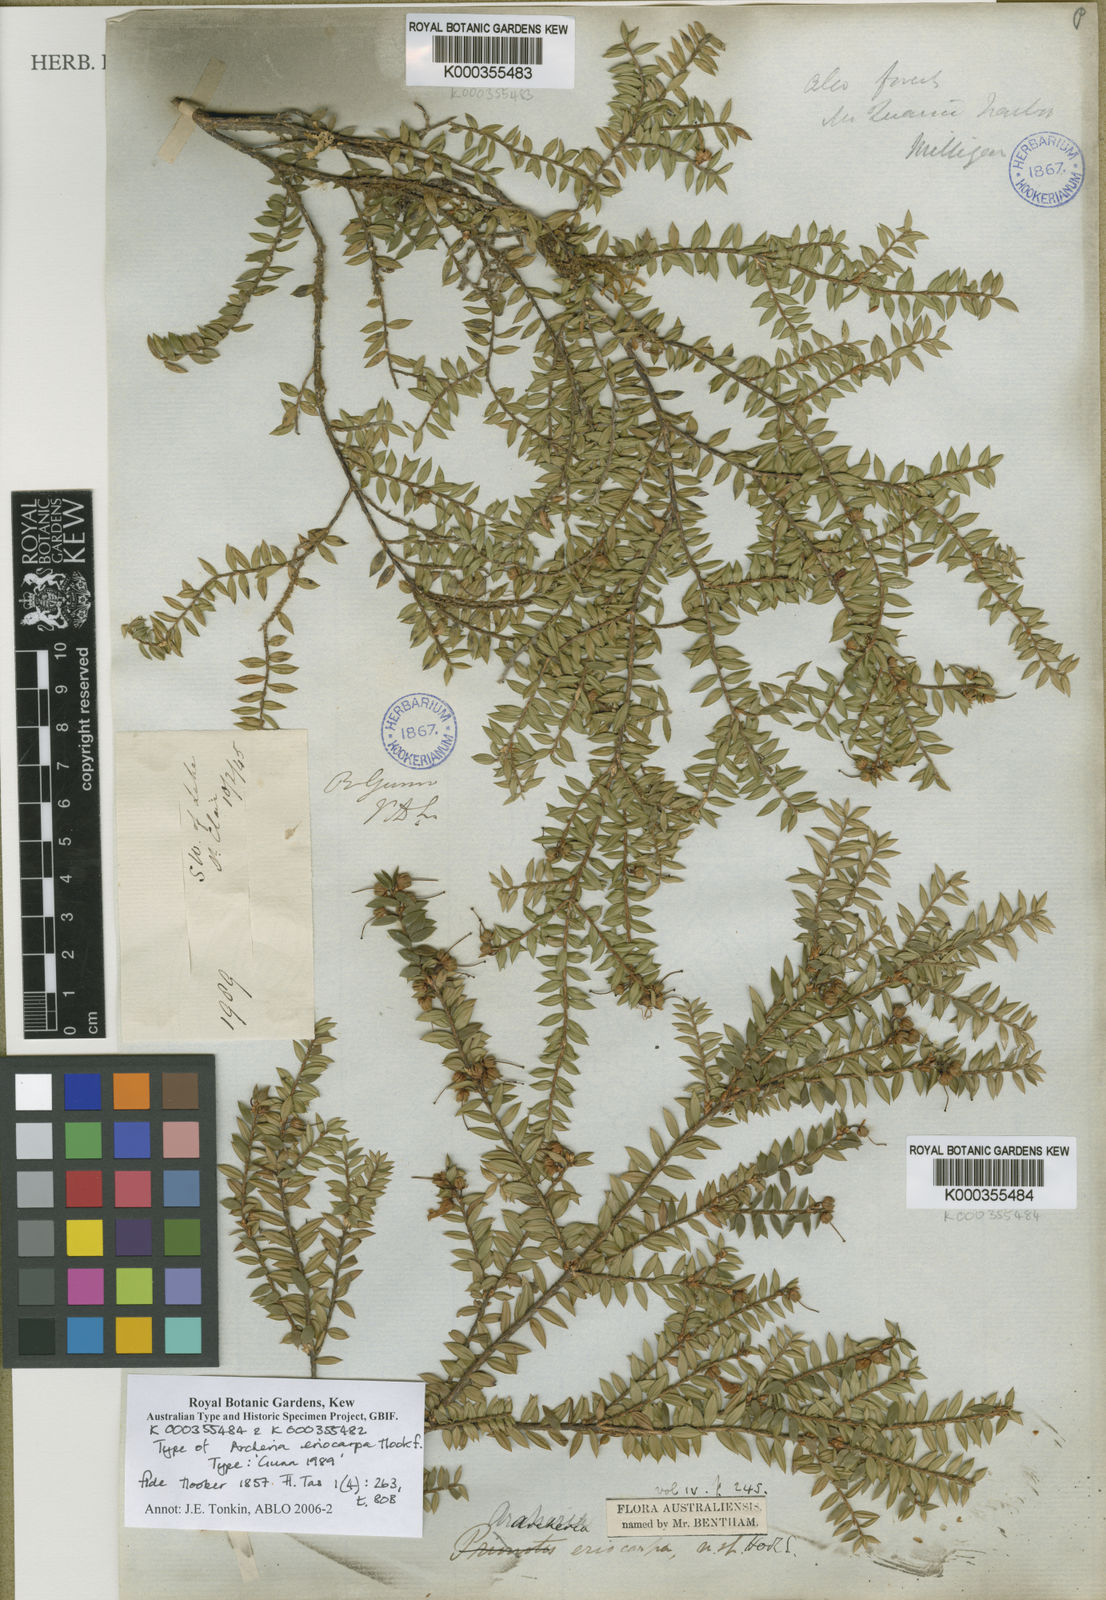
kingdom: Plantae
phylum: Tracheophyta
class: Magnoliopsida
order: Ericales
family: Ericaceae
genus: Archeria
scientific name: Archeria eriocarpa
